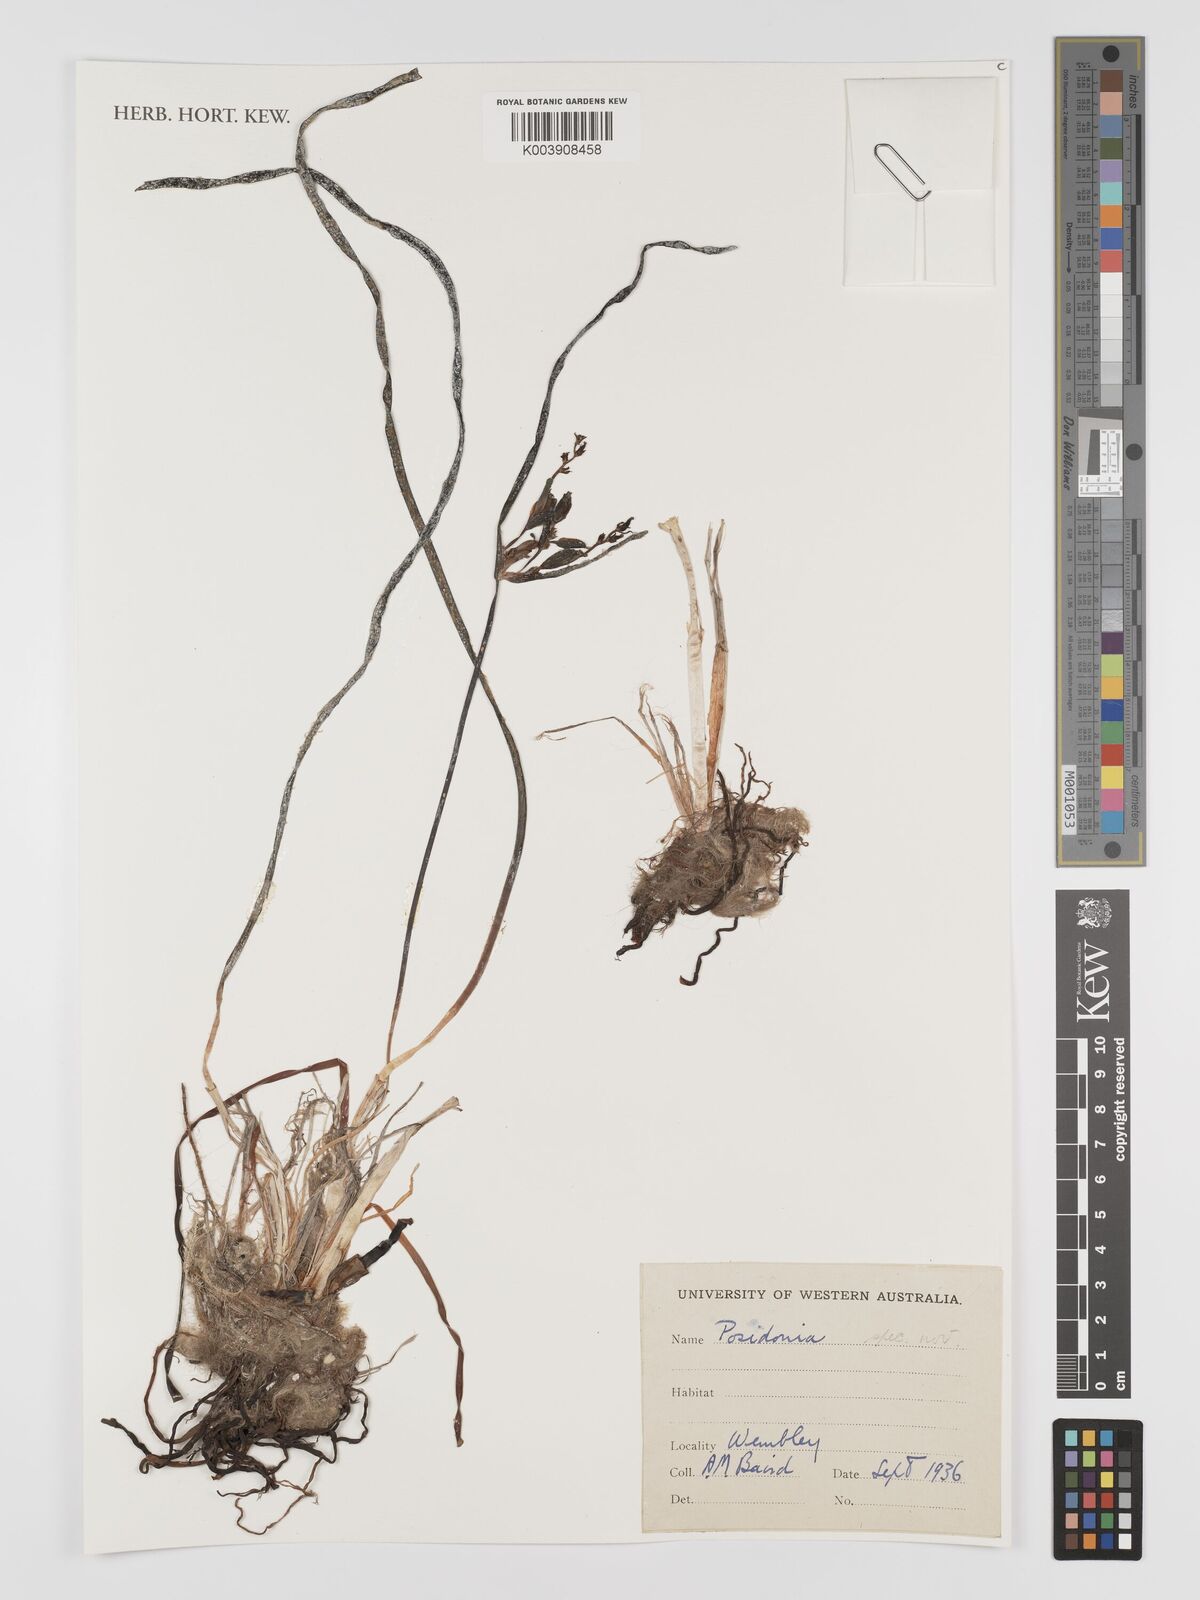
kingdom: Plantae
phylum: Tracheophyta
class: Liliopsida
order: Alismatales
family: Posidoniaceae
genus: Posidonia
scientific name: Posidonia
